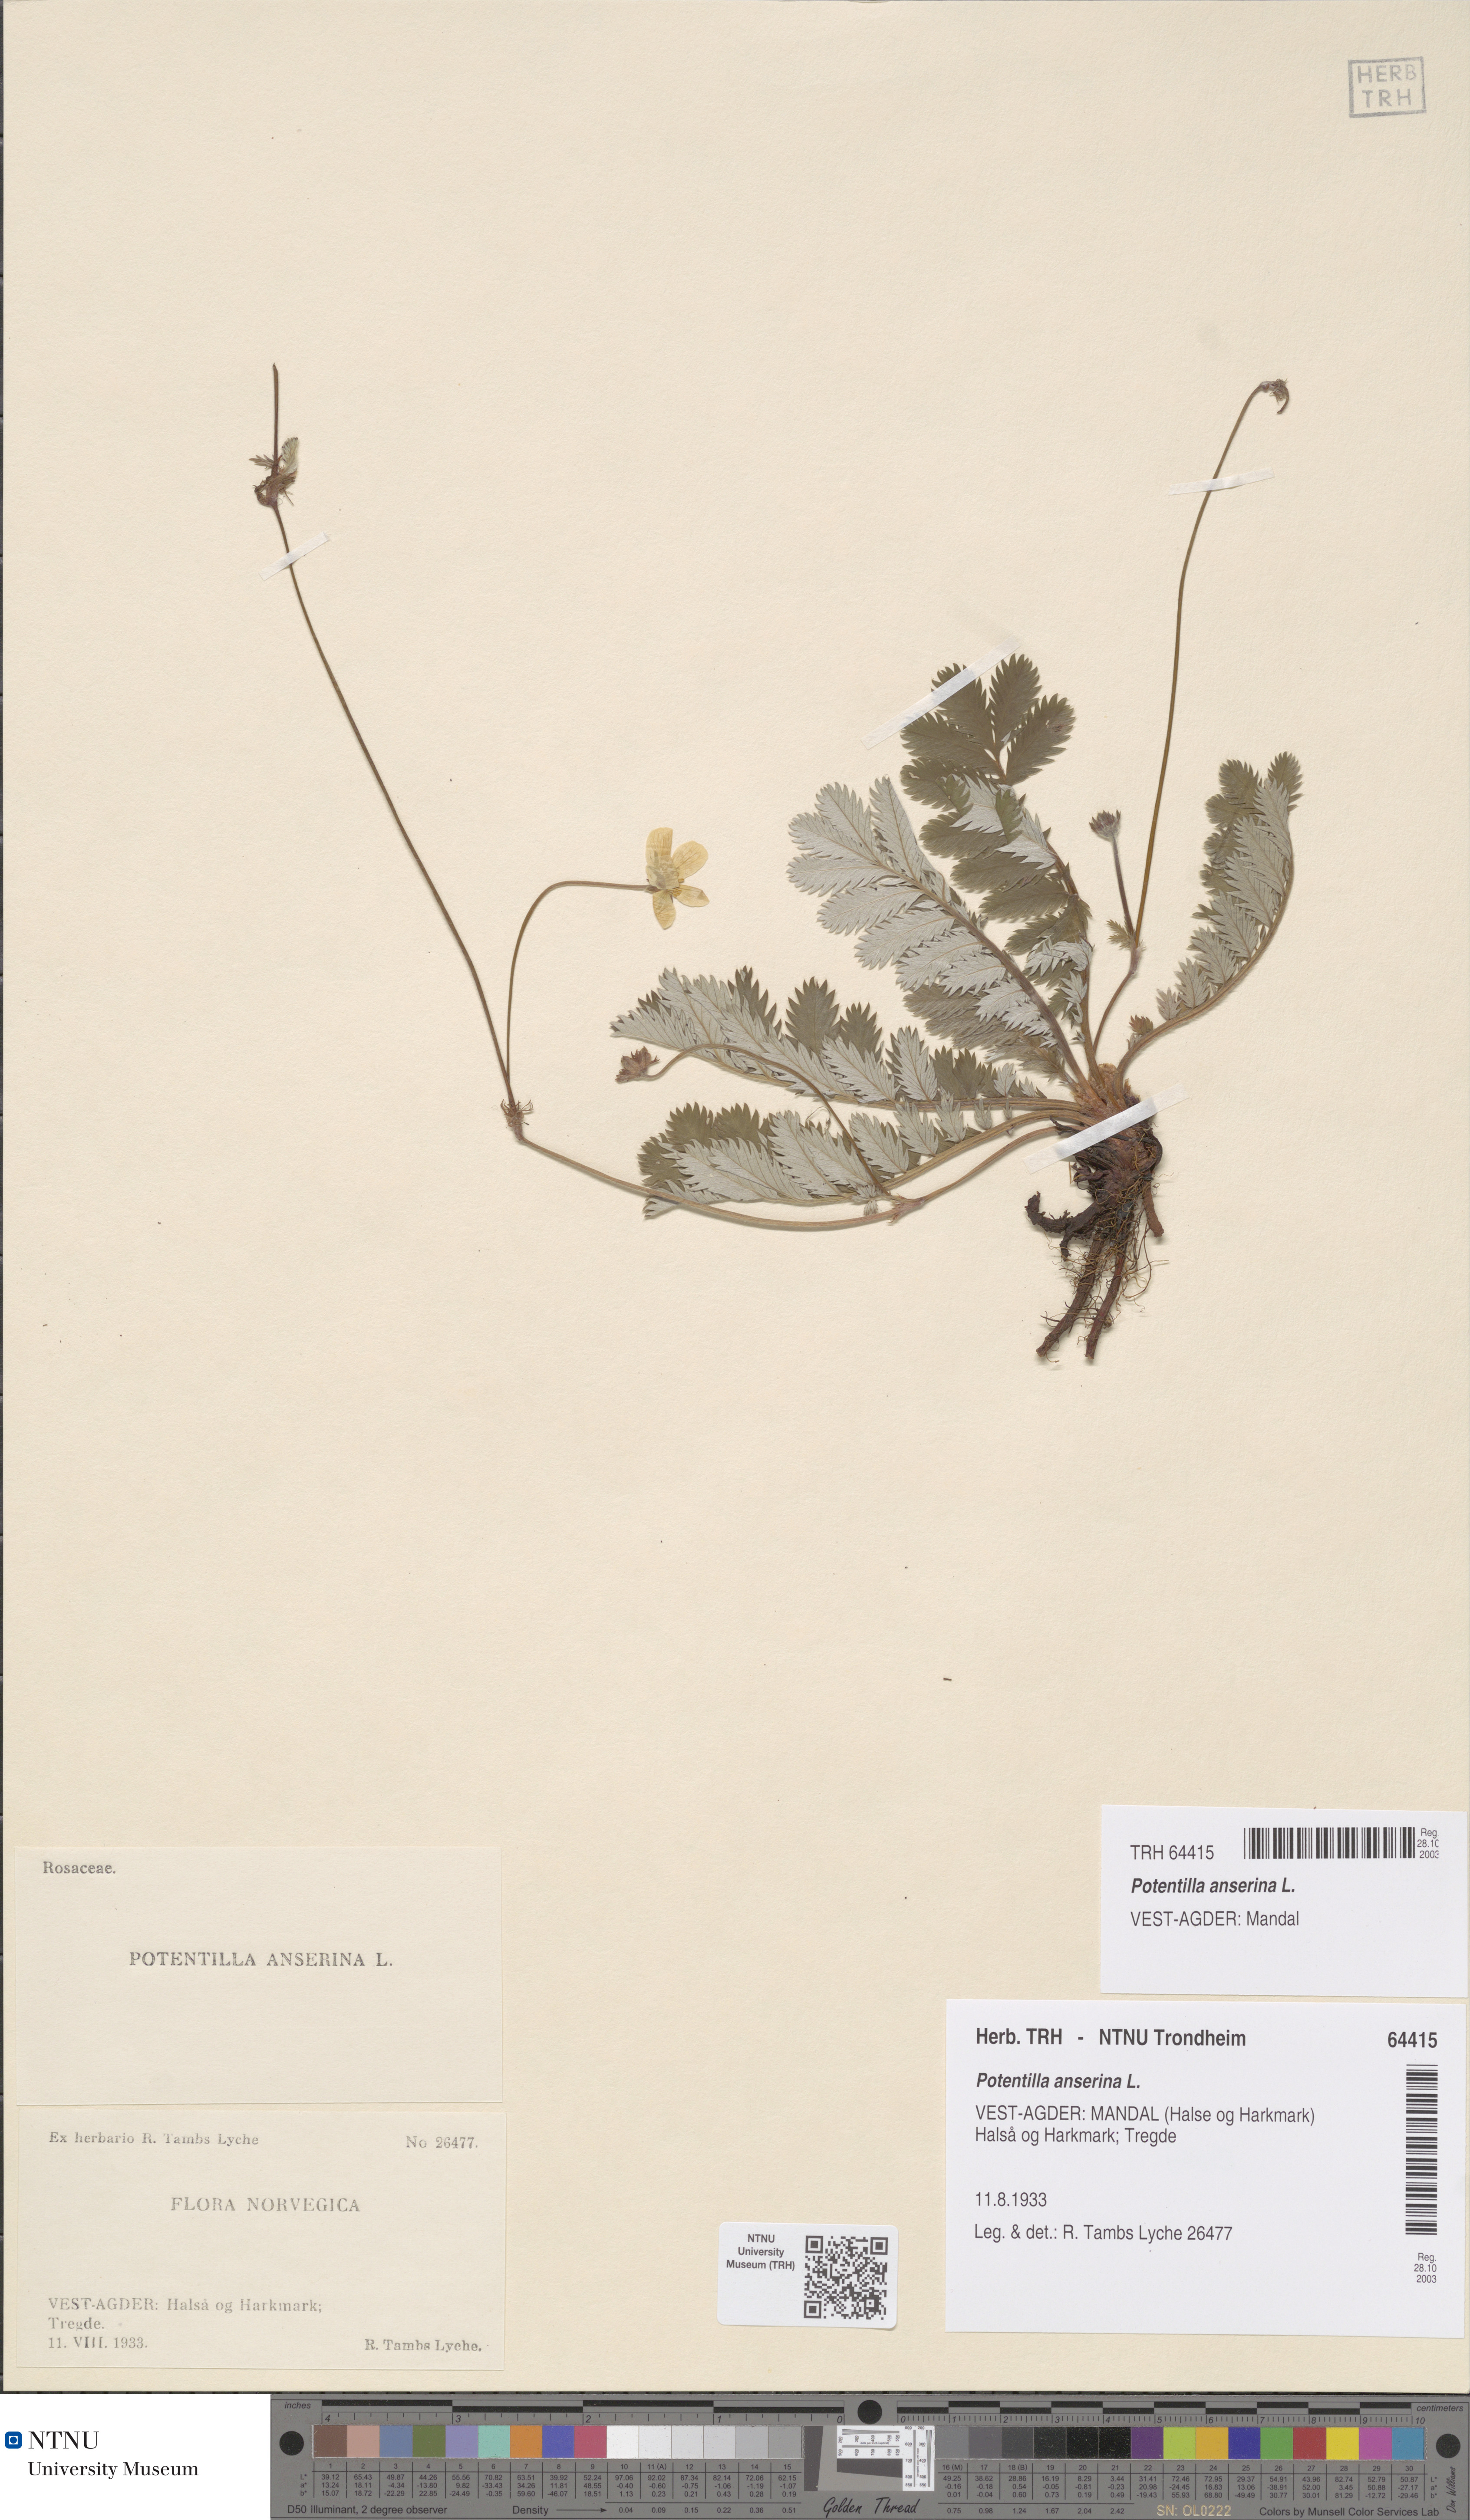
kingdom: Plantae
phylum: Tracheophyta
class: Magnoliopsida
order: Rosales
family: Rosaceae
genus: Argentina
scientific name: Argentina anserina
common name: Common silverweed
